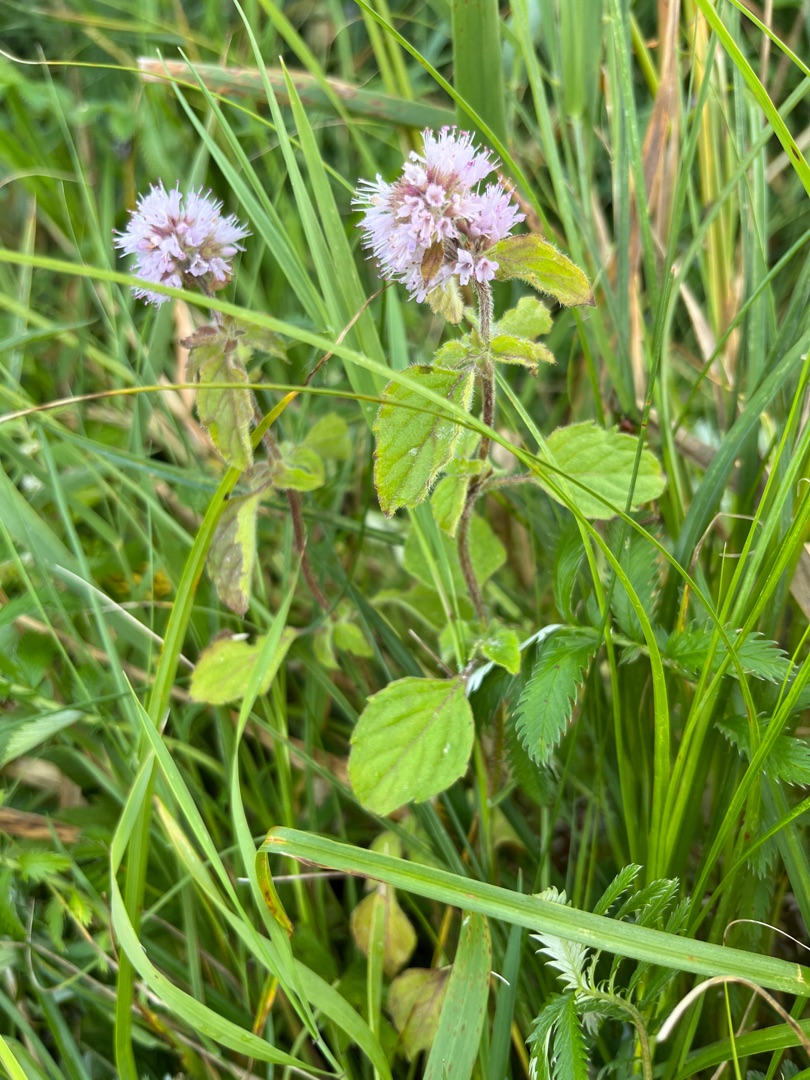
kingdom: Plantae
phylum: Tracheophyta
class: Magnoliopsida
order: Lamiales
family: Lamiaceae
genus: Mentha
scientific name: Mentha aquatica
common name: Vand-mynte
